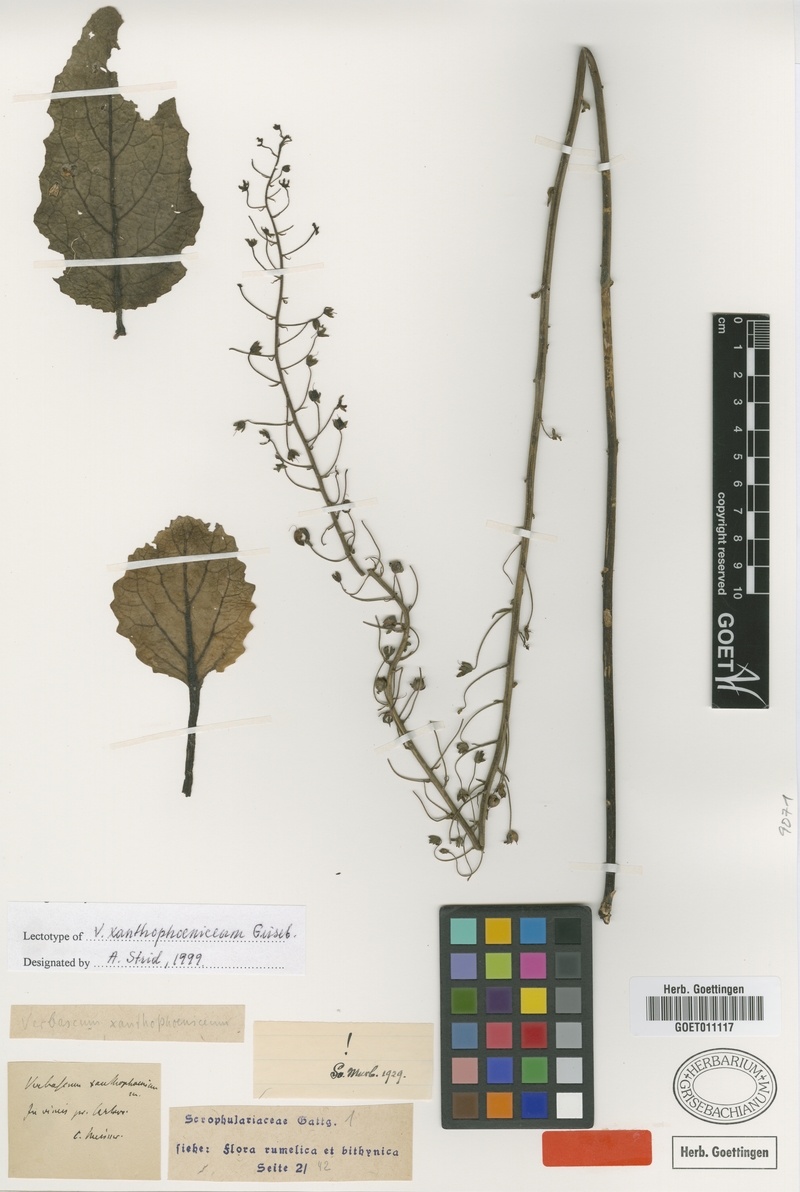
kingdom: Plantae
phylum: Tracheophyta
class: Magnoliopsida
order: Lamiales
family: Scrophulariaceae
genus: Verbascum
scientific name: Verbascum xanthophoeniceum
